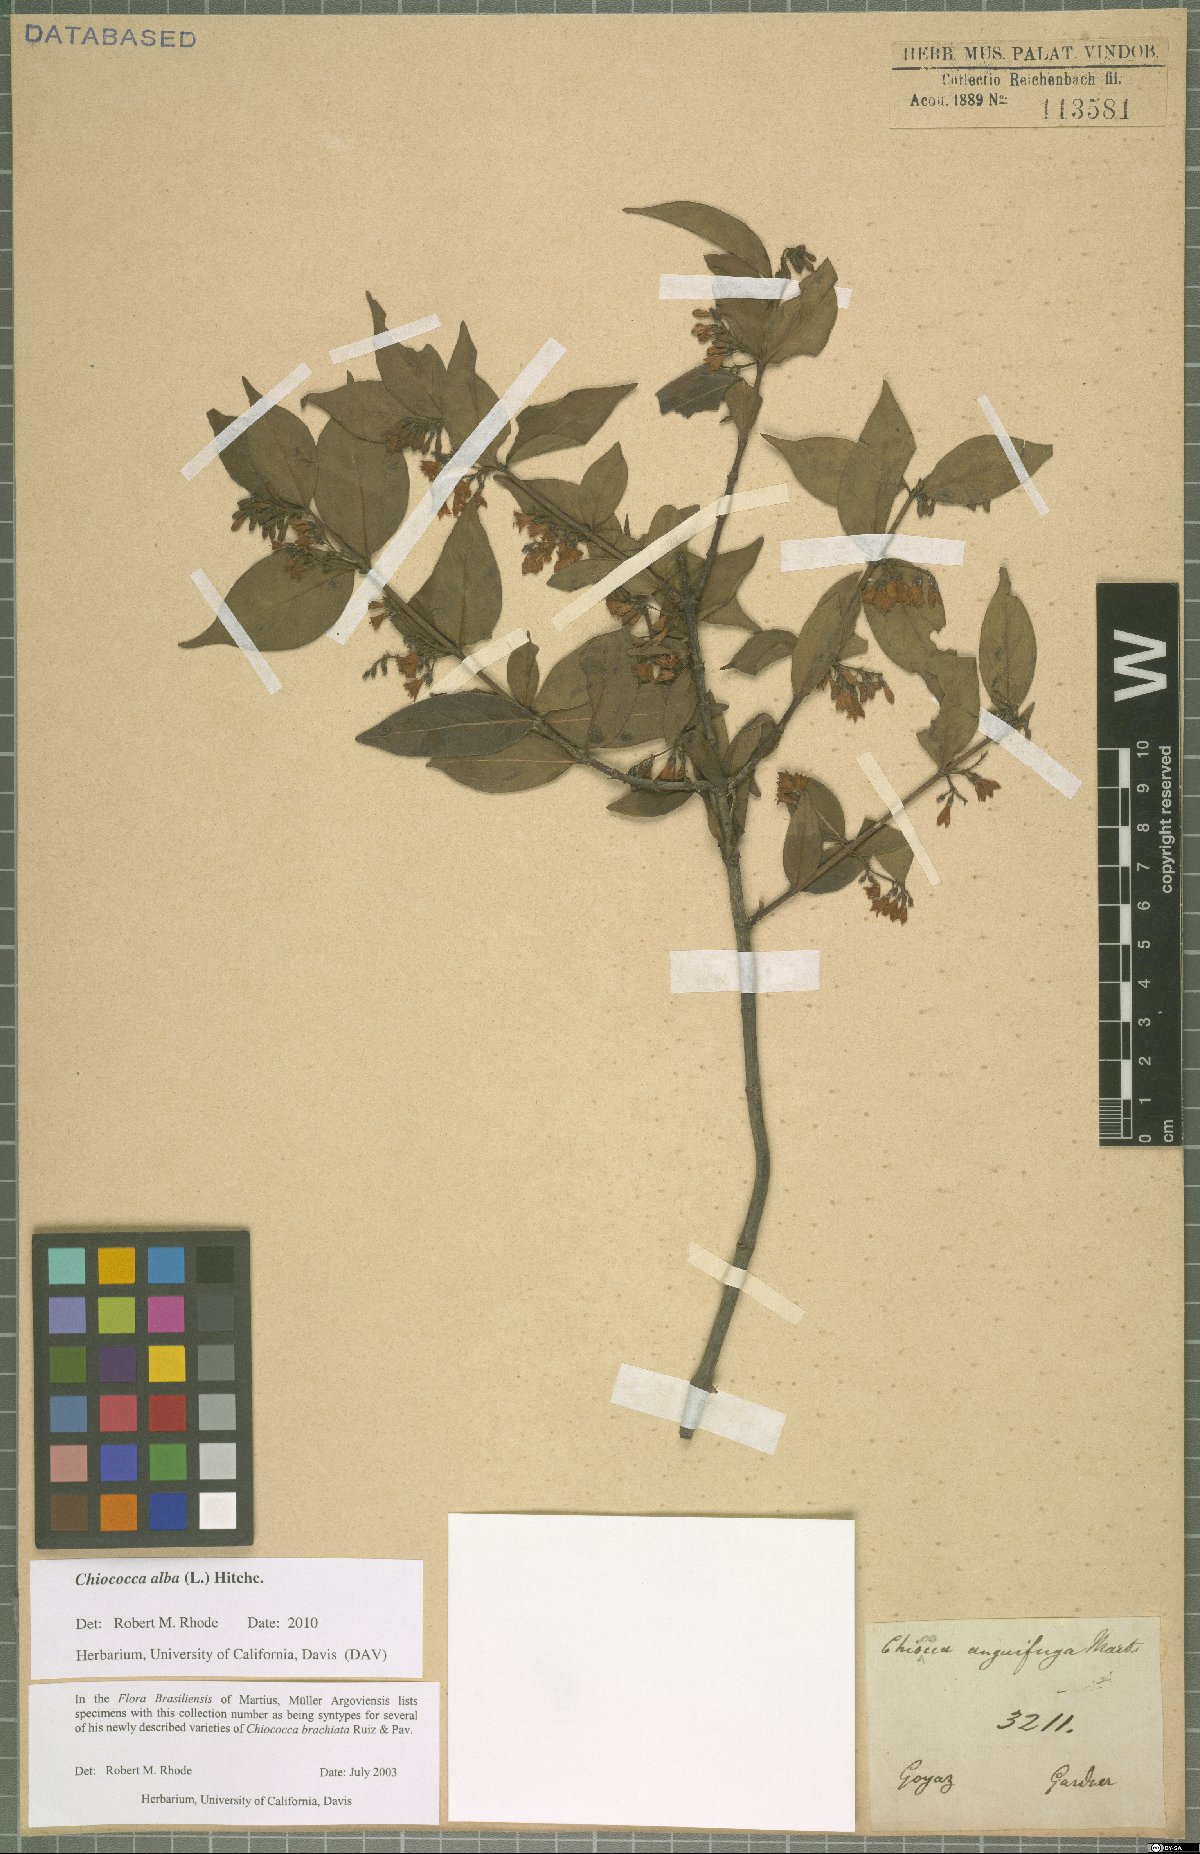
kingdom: Plantae
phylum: Tracheophyta
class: Magnoliopsida
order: Gentianales
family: Rubiaceae
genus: Chiococca
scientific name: Chiococca alba
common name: Snowberry
